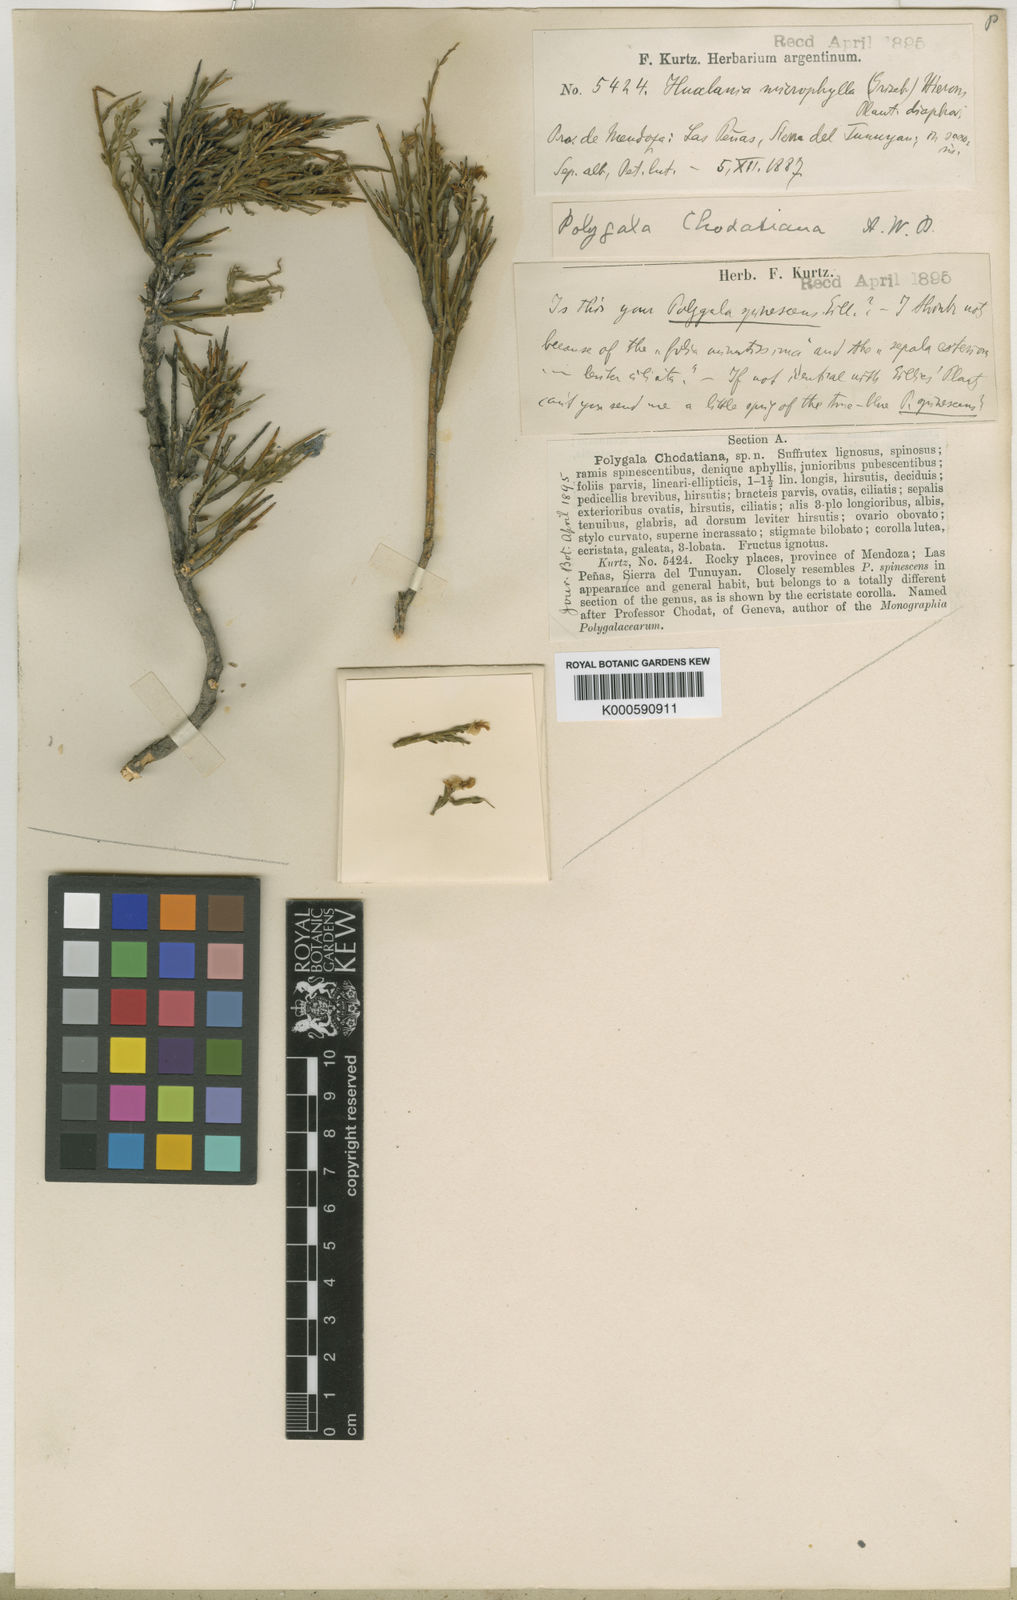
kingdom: Plantae
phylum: Tracheophyta
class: Magnoliopsida
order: Fabales
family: Polygalaceae
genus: Rhamphopetalum
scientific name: Rhamphopetalum microphyllum
